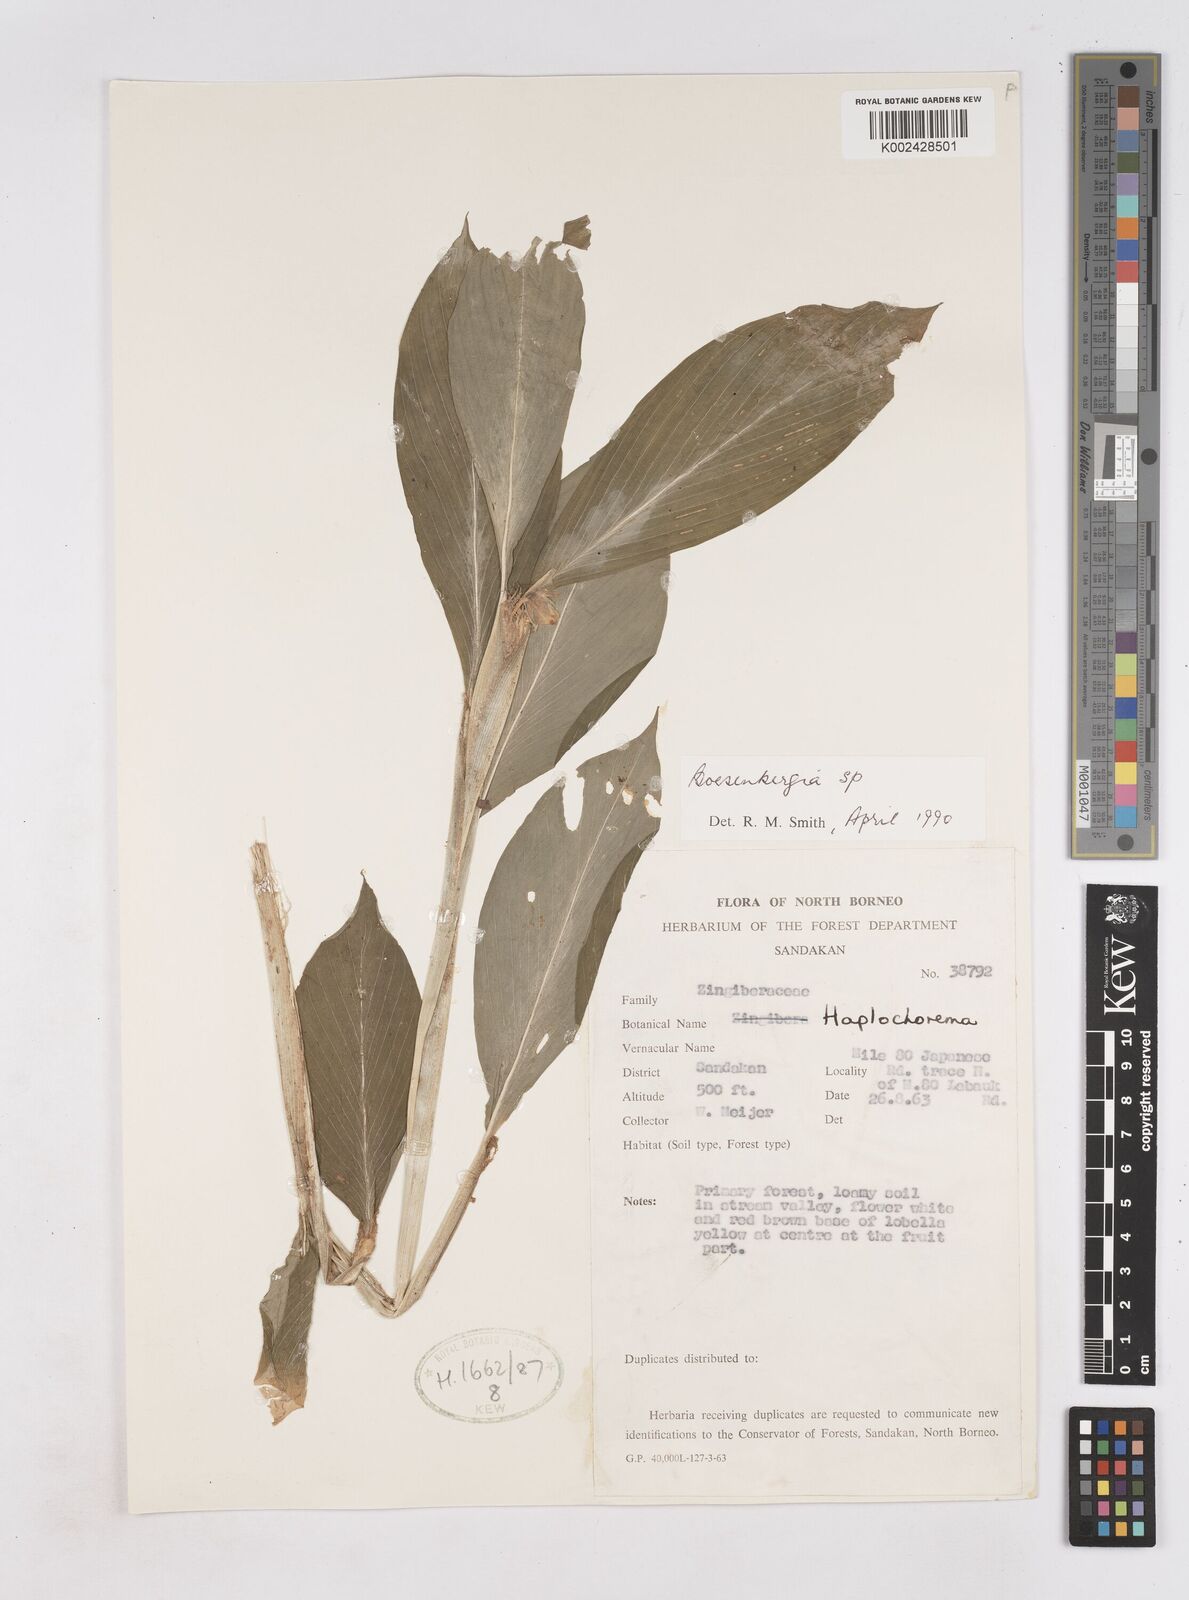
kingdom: Plantae
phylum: Tracheophyta
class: Liliopsida
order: Zingiberales
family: Zingiberaceae
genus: Boesenbergia
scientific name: Boesenbergia
